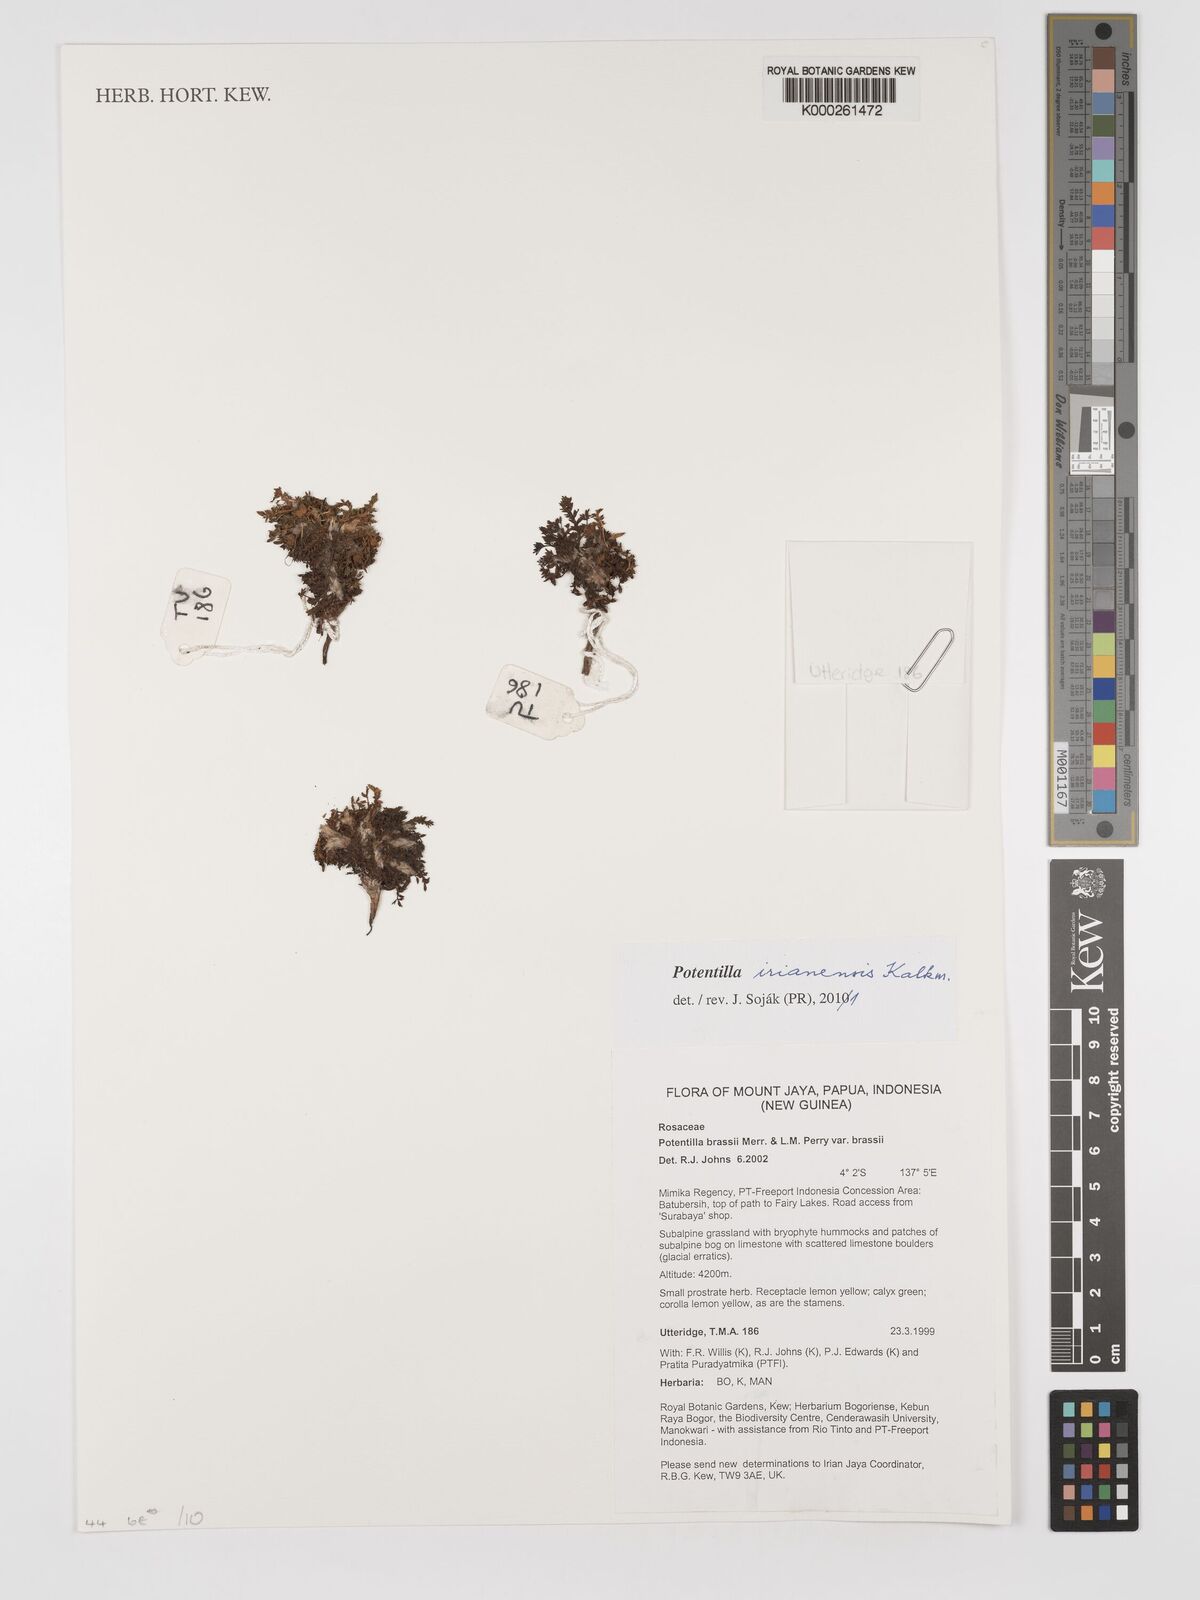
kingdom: Plantae
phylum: Tracheophyta
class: Magnoliopsida
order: Rosales
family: Rosaceae
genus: Argentina
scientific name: Argentina irianensis
